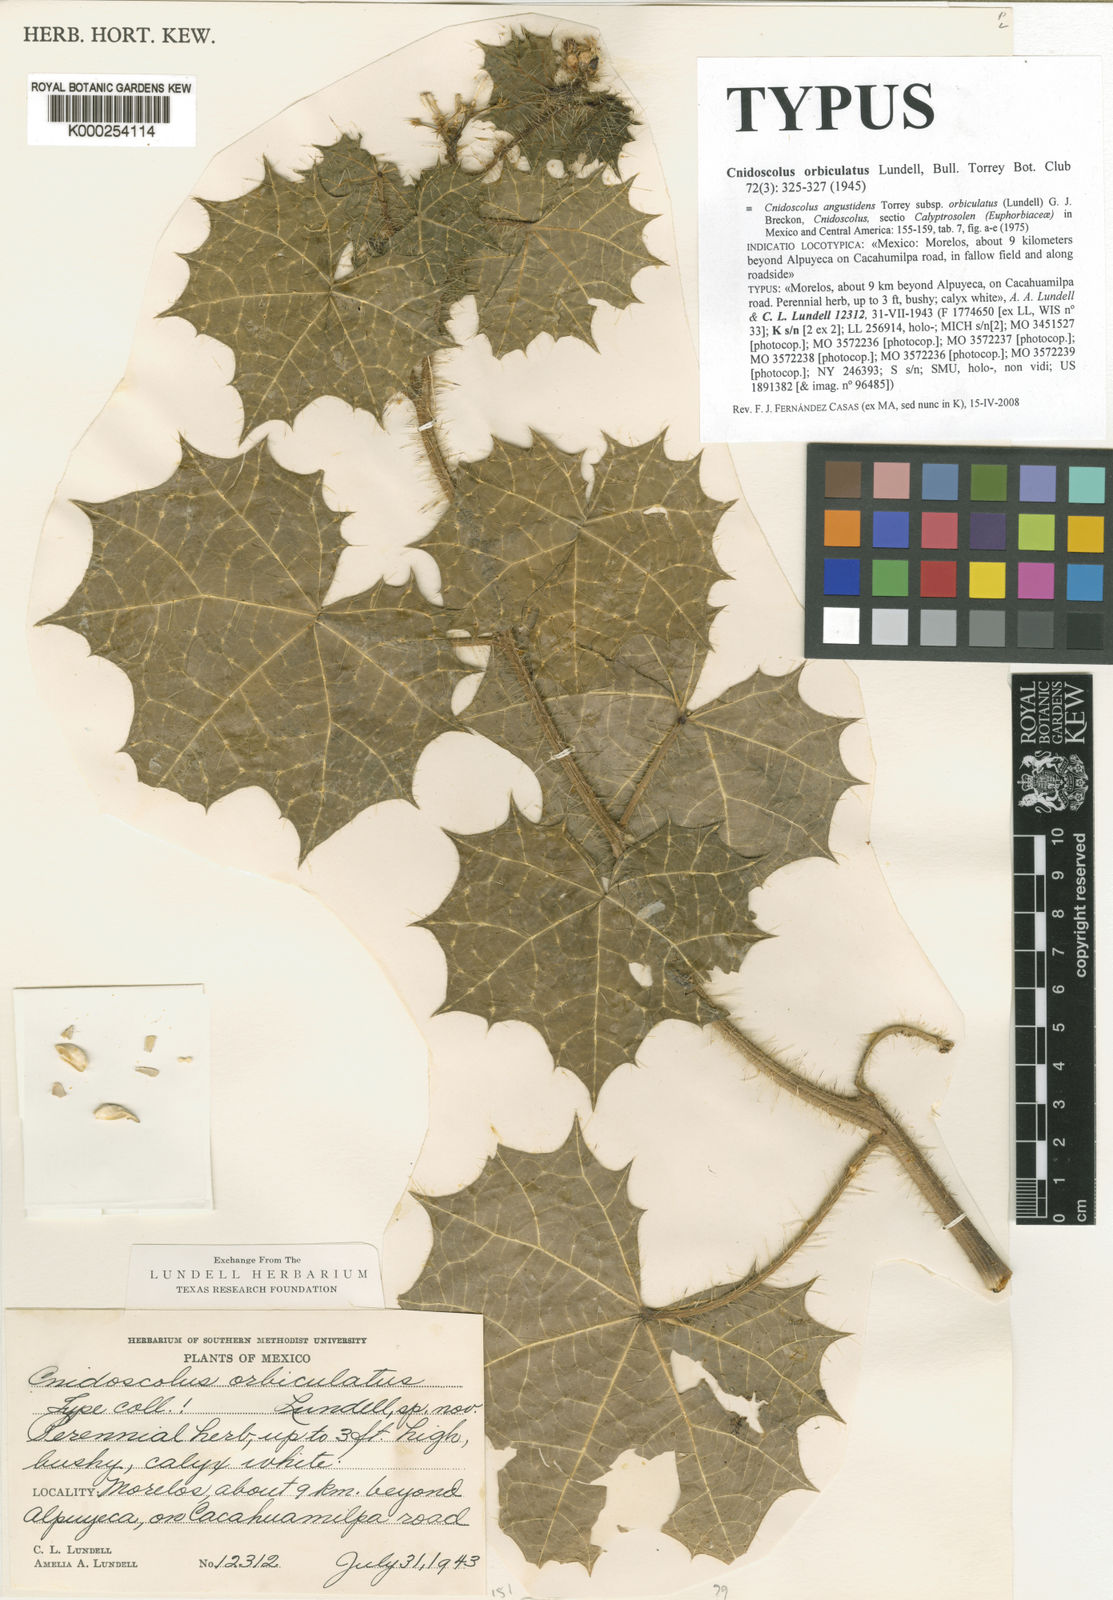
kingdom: Plantae
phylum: Tracheophyta
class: Magnoliopsida
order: Malpighiales
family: Euphorbiaceae
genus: Cnidoscolus
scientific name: Cnidoscolus angustidens
